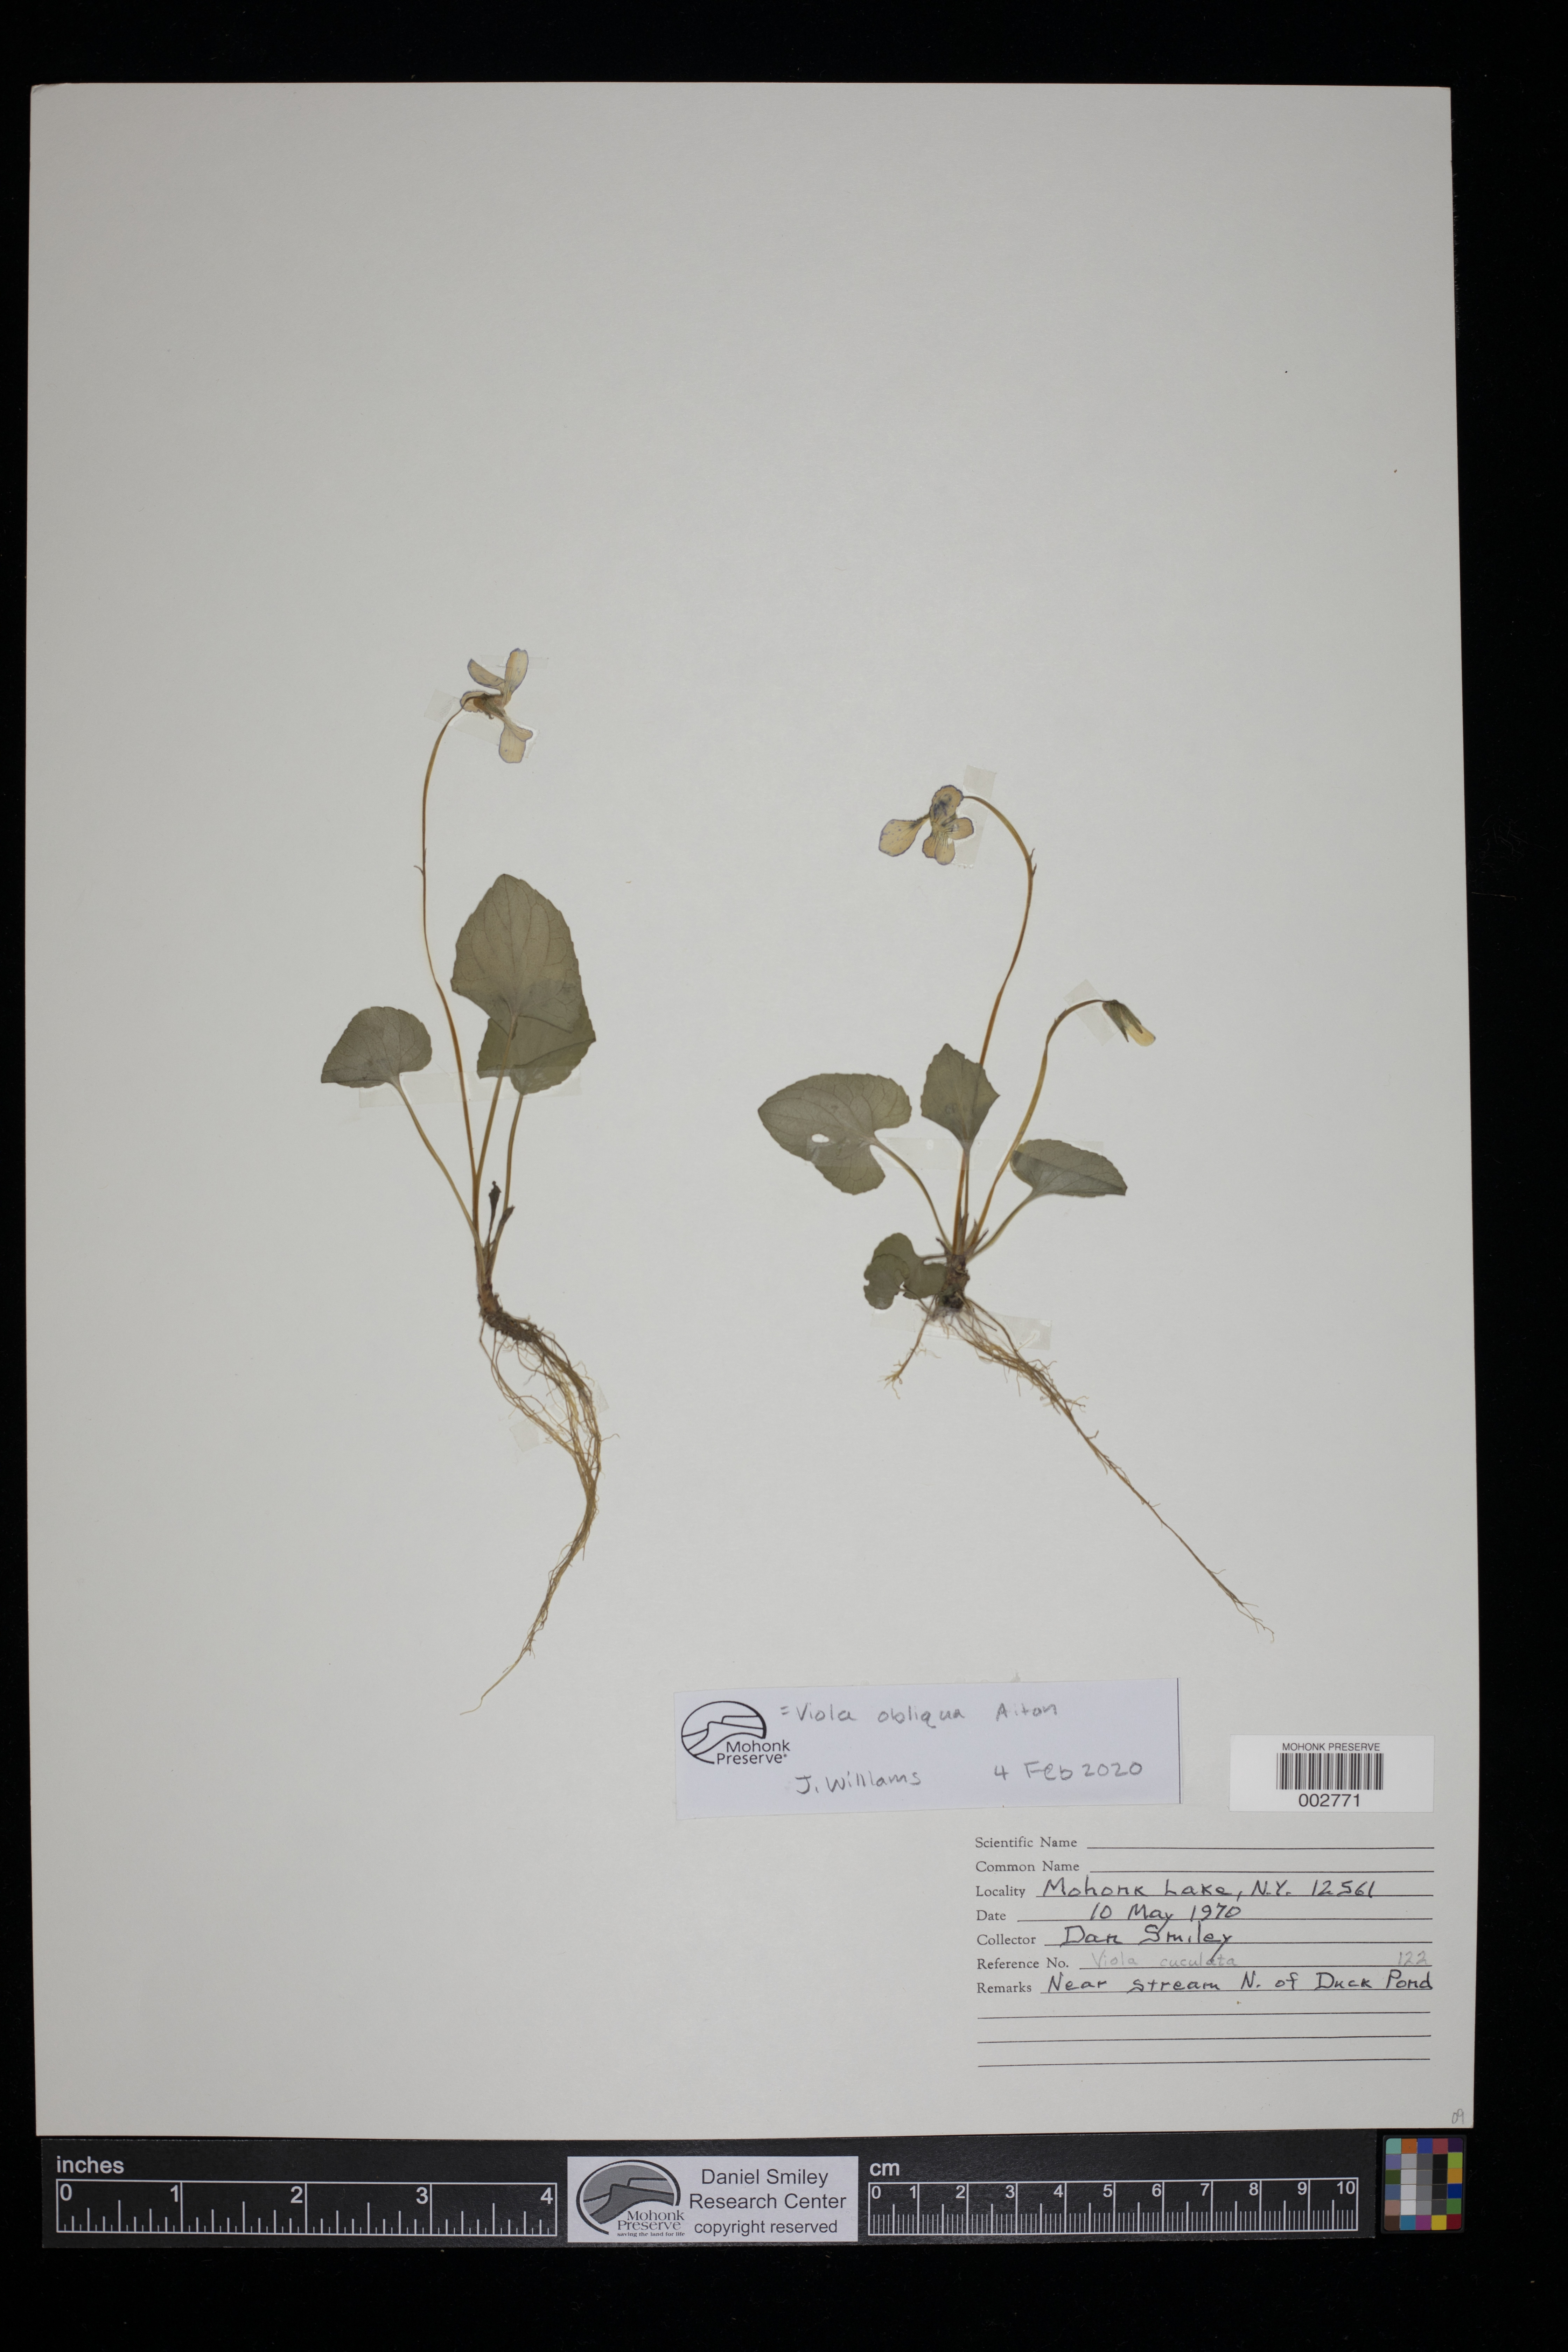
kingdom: Plantae
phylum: Tracheophyta
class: Magnoliopsida
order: Malpighiales
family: Violaceae
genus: Viola
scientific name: Viola cucullata
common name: Marsh blue violet
